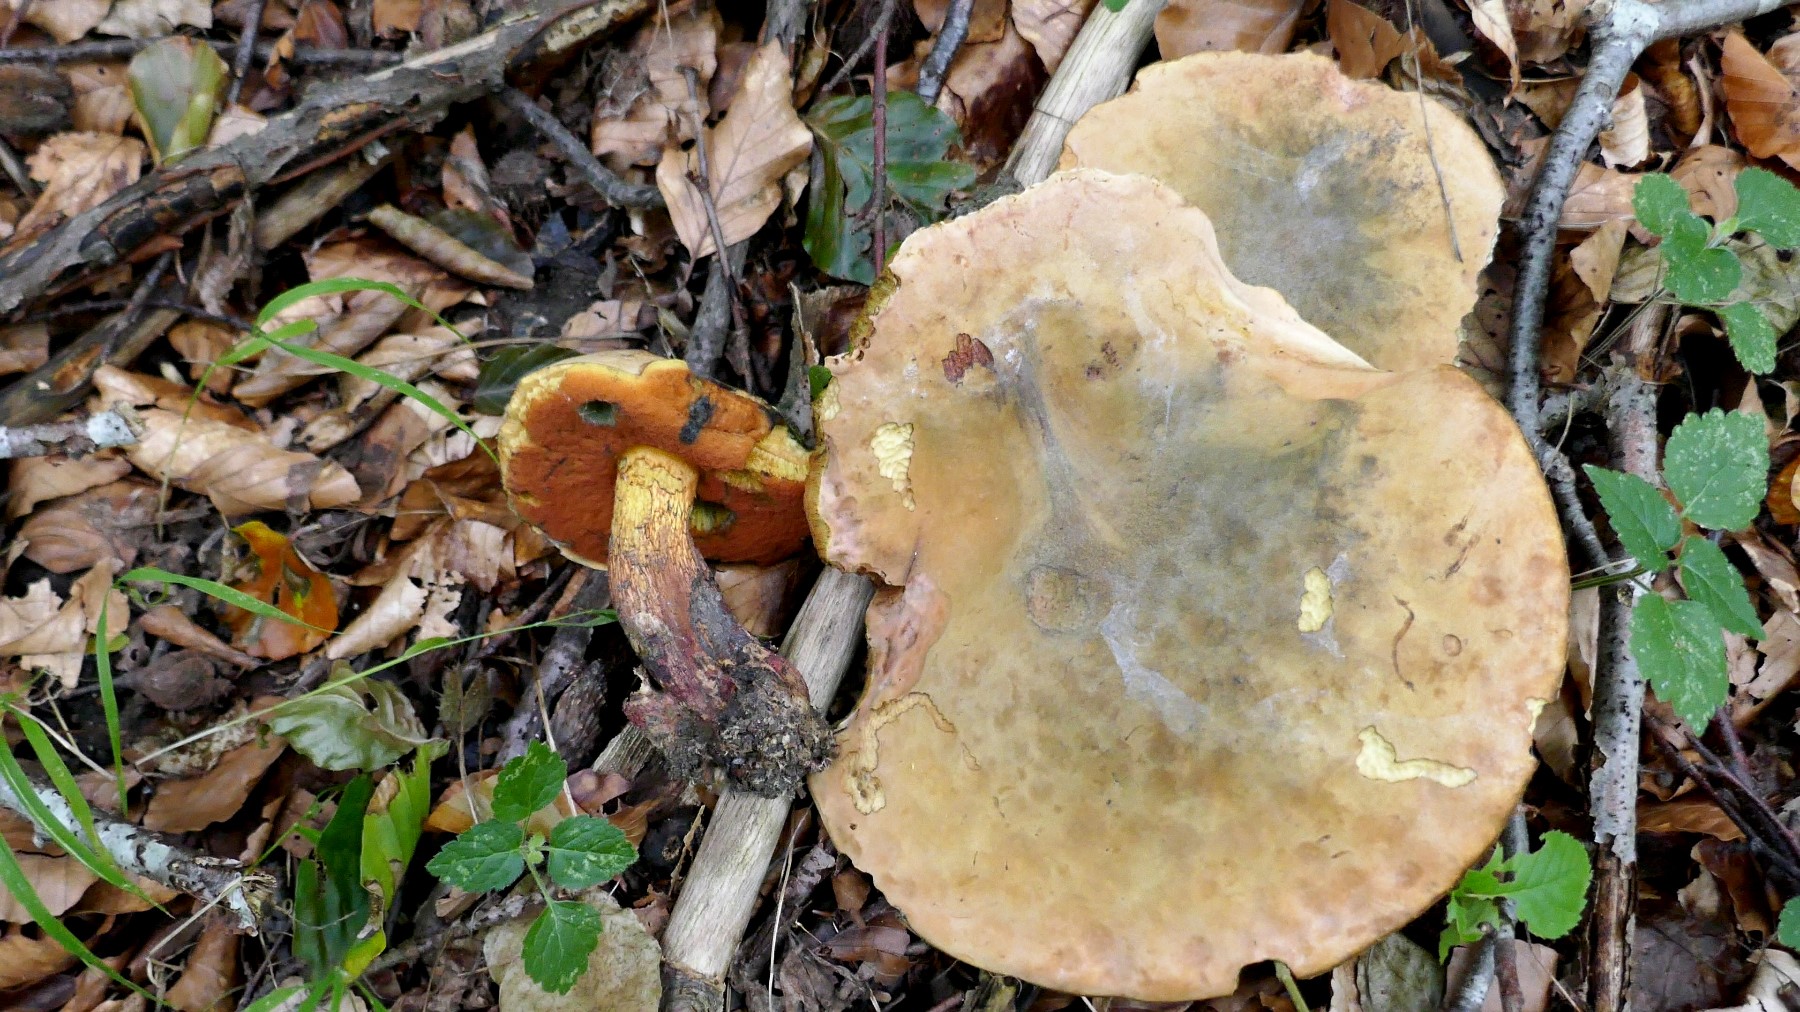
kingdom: Fungi
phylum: Basidiomycota
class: Agaricomycetes
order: Boletales
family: Boletaceae
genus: Suillellus
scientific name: Suillellus luridus
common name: netstokket indigorørhat
